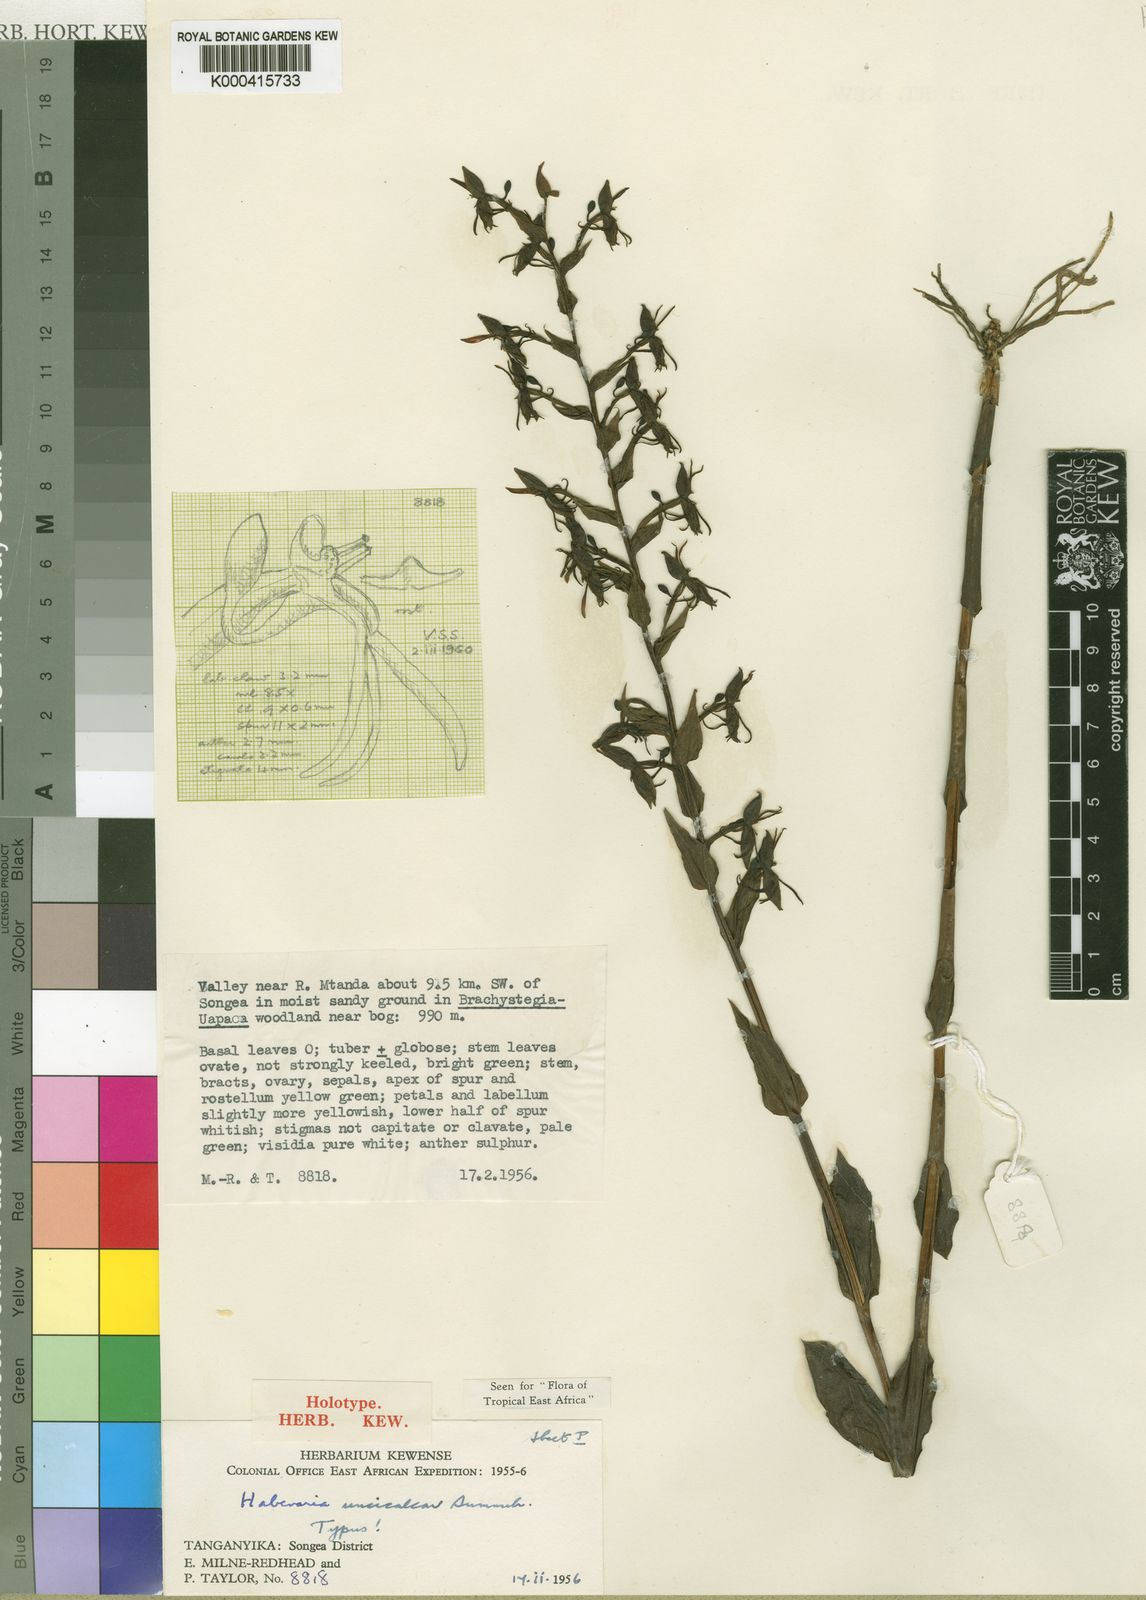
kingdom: Plantae
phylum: Tracheophyta
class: Liliopsida
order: Asparagales
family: Orchidaceae
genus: Habenaria
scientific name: Habenaria uncicalcar
